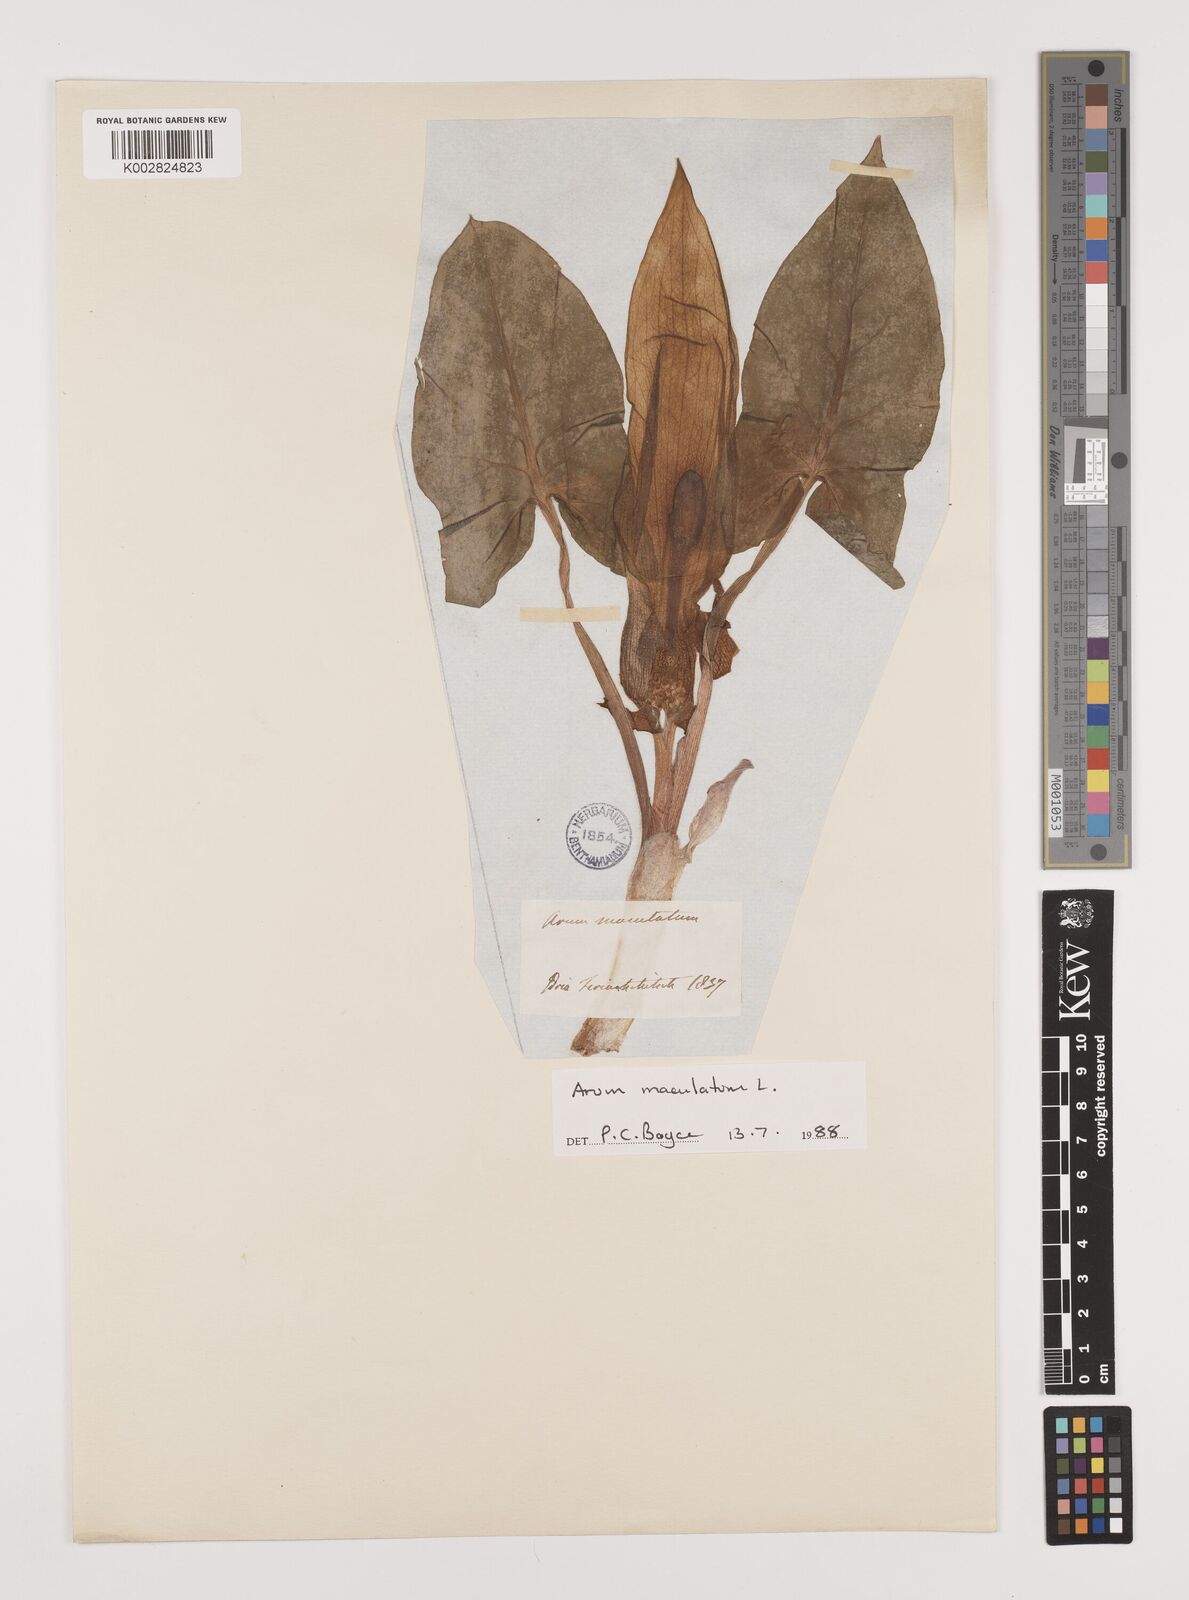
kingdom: Plantae
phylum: Tracheophyta
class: Liliopsida
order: Alismatales
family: Araceae
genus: Arum
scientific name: Arum maculatum
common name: Lords-and-ladies
